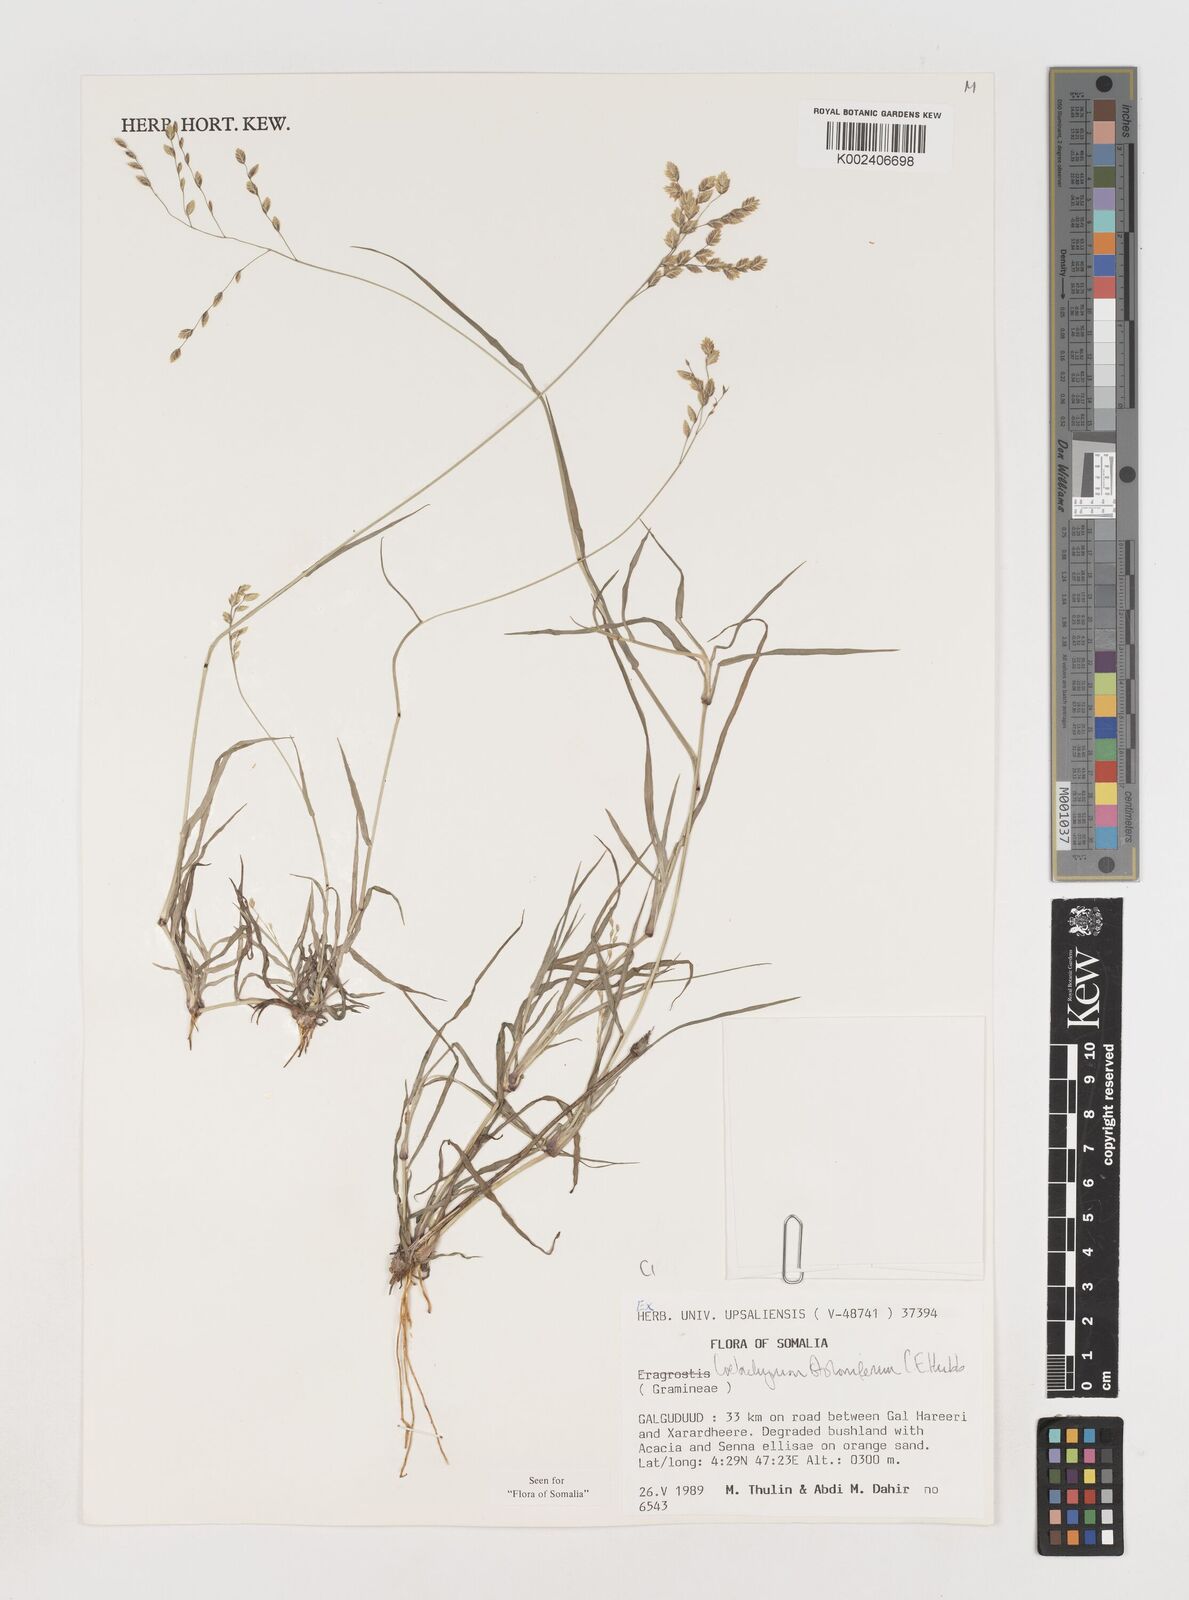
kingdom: Plantae
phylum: Tracheophyta
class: Liliopsida
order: Poales
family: Poaceae
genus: Coelachyrum
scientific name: Coelachyrum piercei
